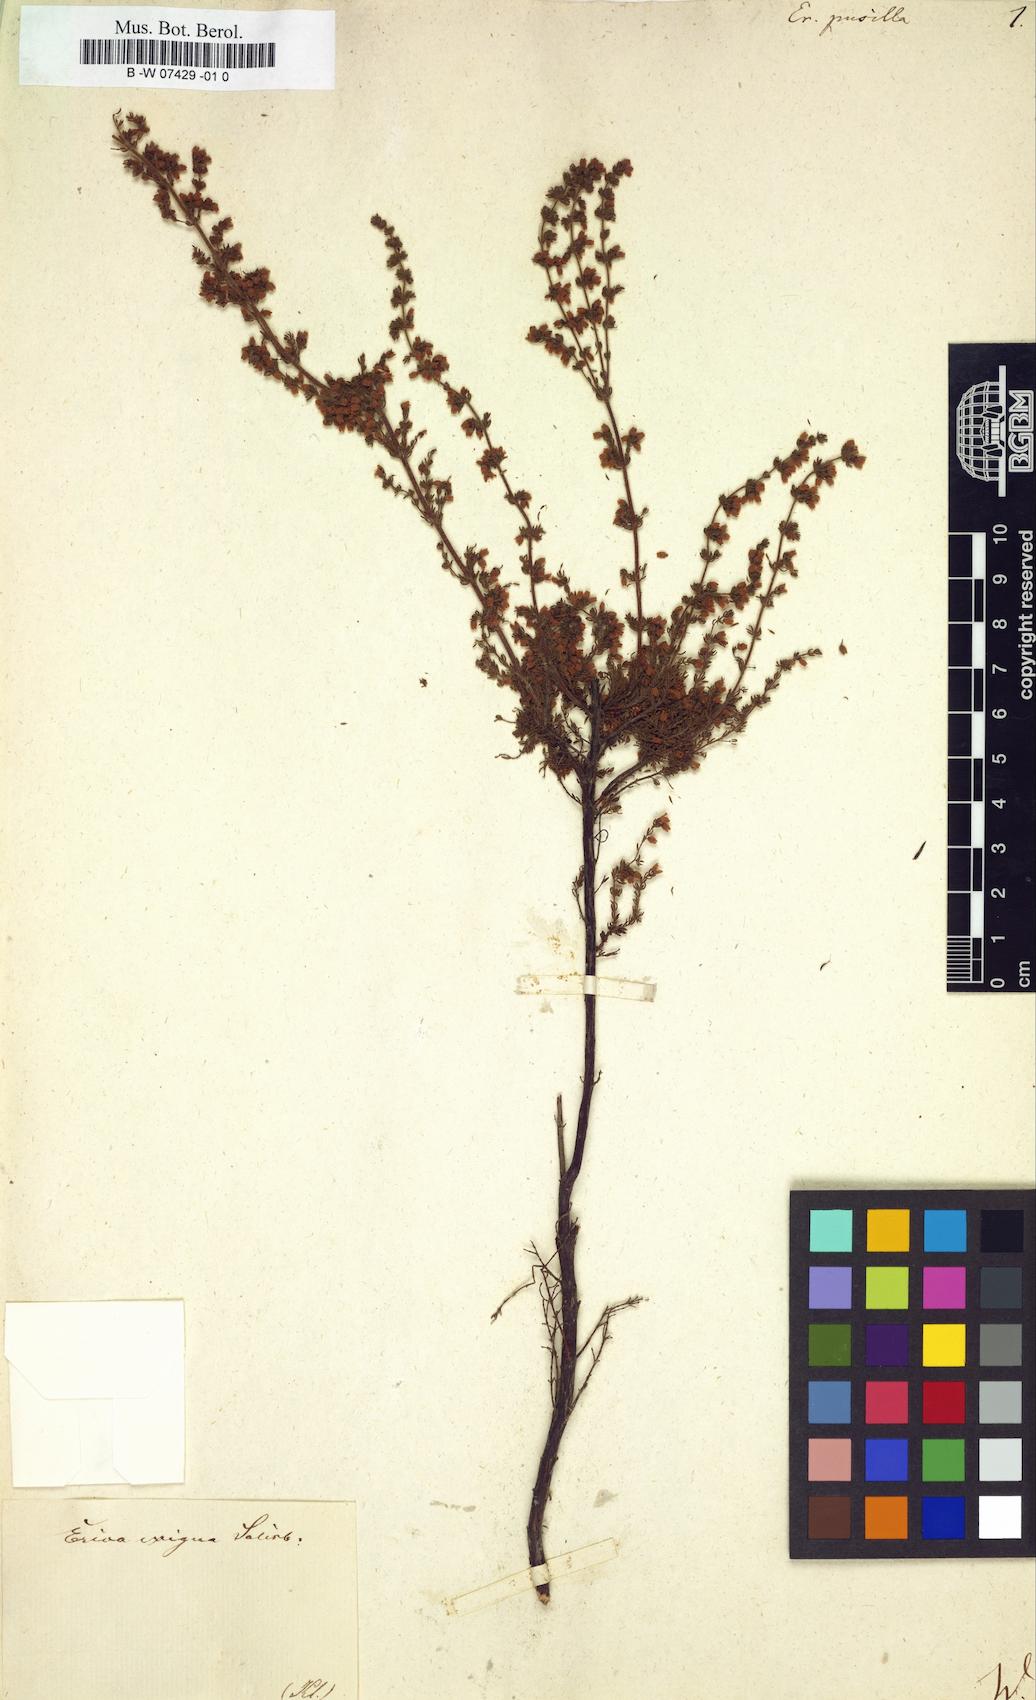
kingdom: Plantae
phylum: Tracheophyta
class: Magnoliopsida
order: Ericales
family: Ericaceae
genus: Erica
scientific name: Erica canescens
